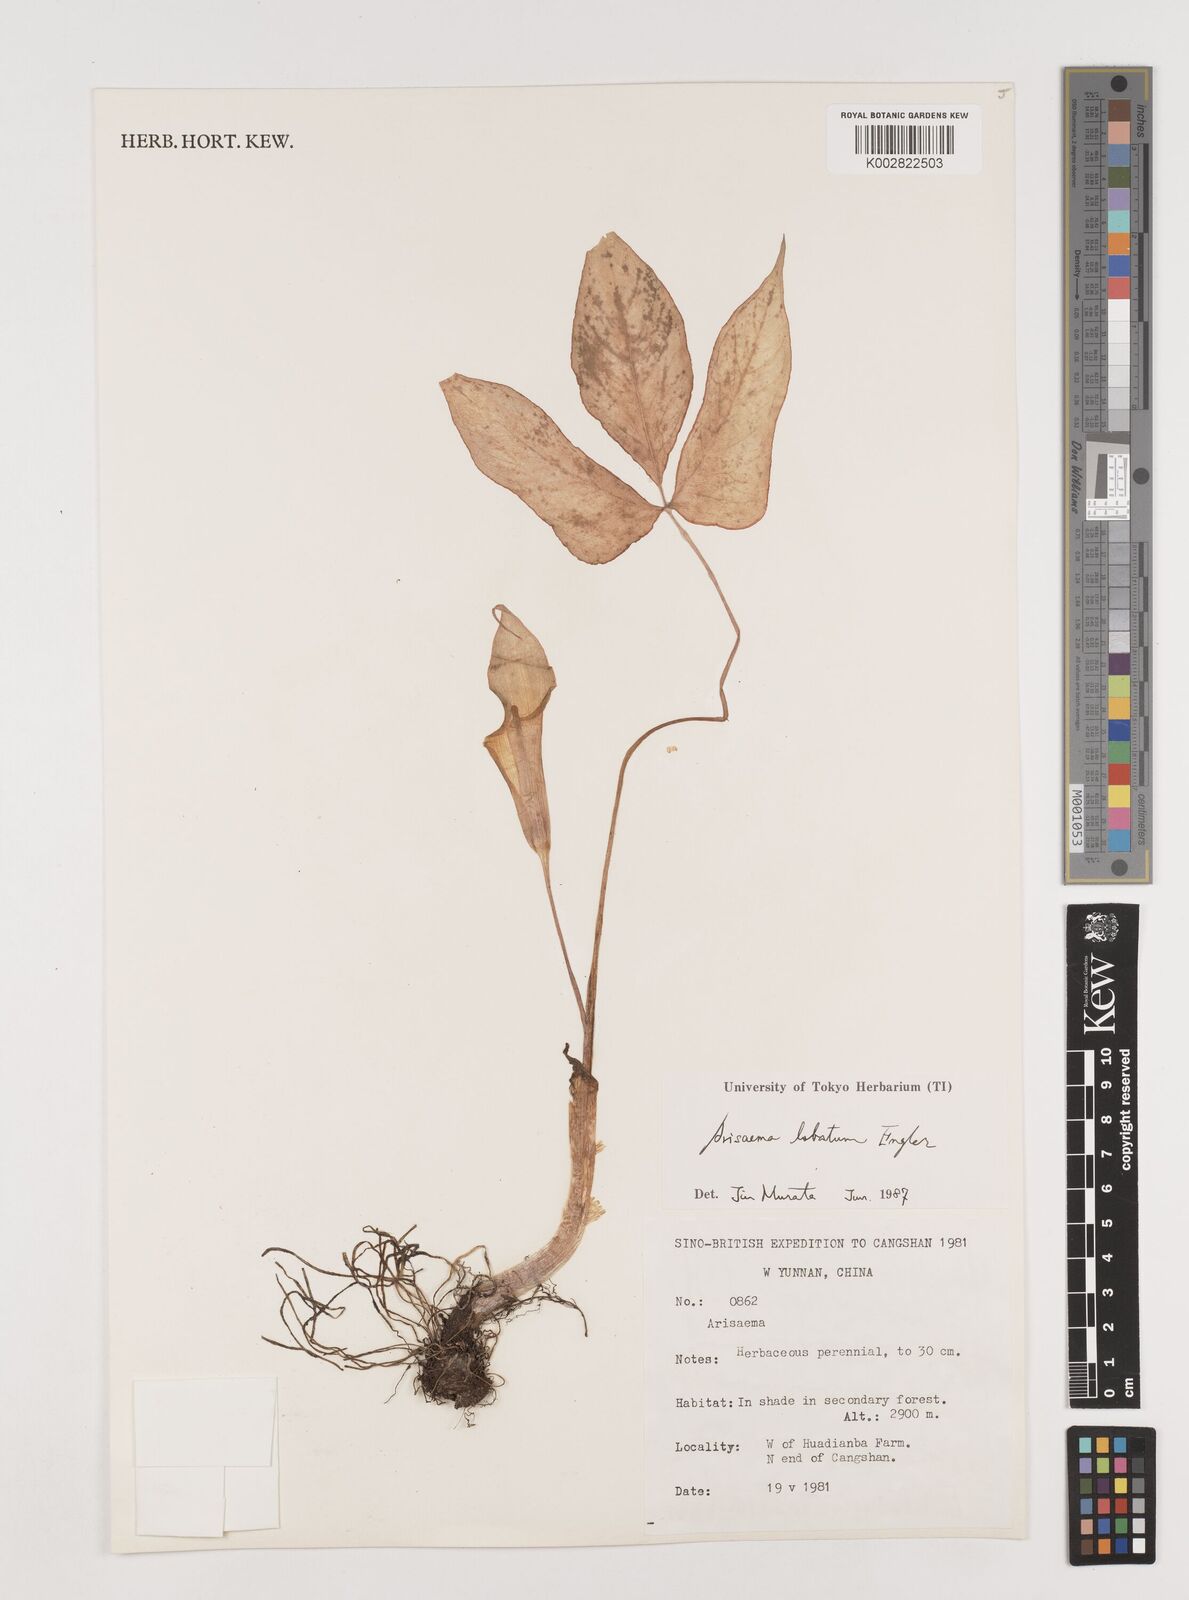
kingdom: Plantae
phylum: Tracheophyta
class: Liliopsida
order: Alismatales
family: Araceae
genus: Arisaema
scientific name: Arisaema lobatum
